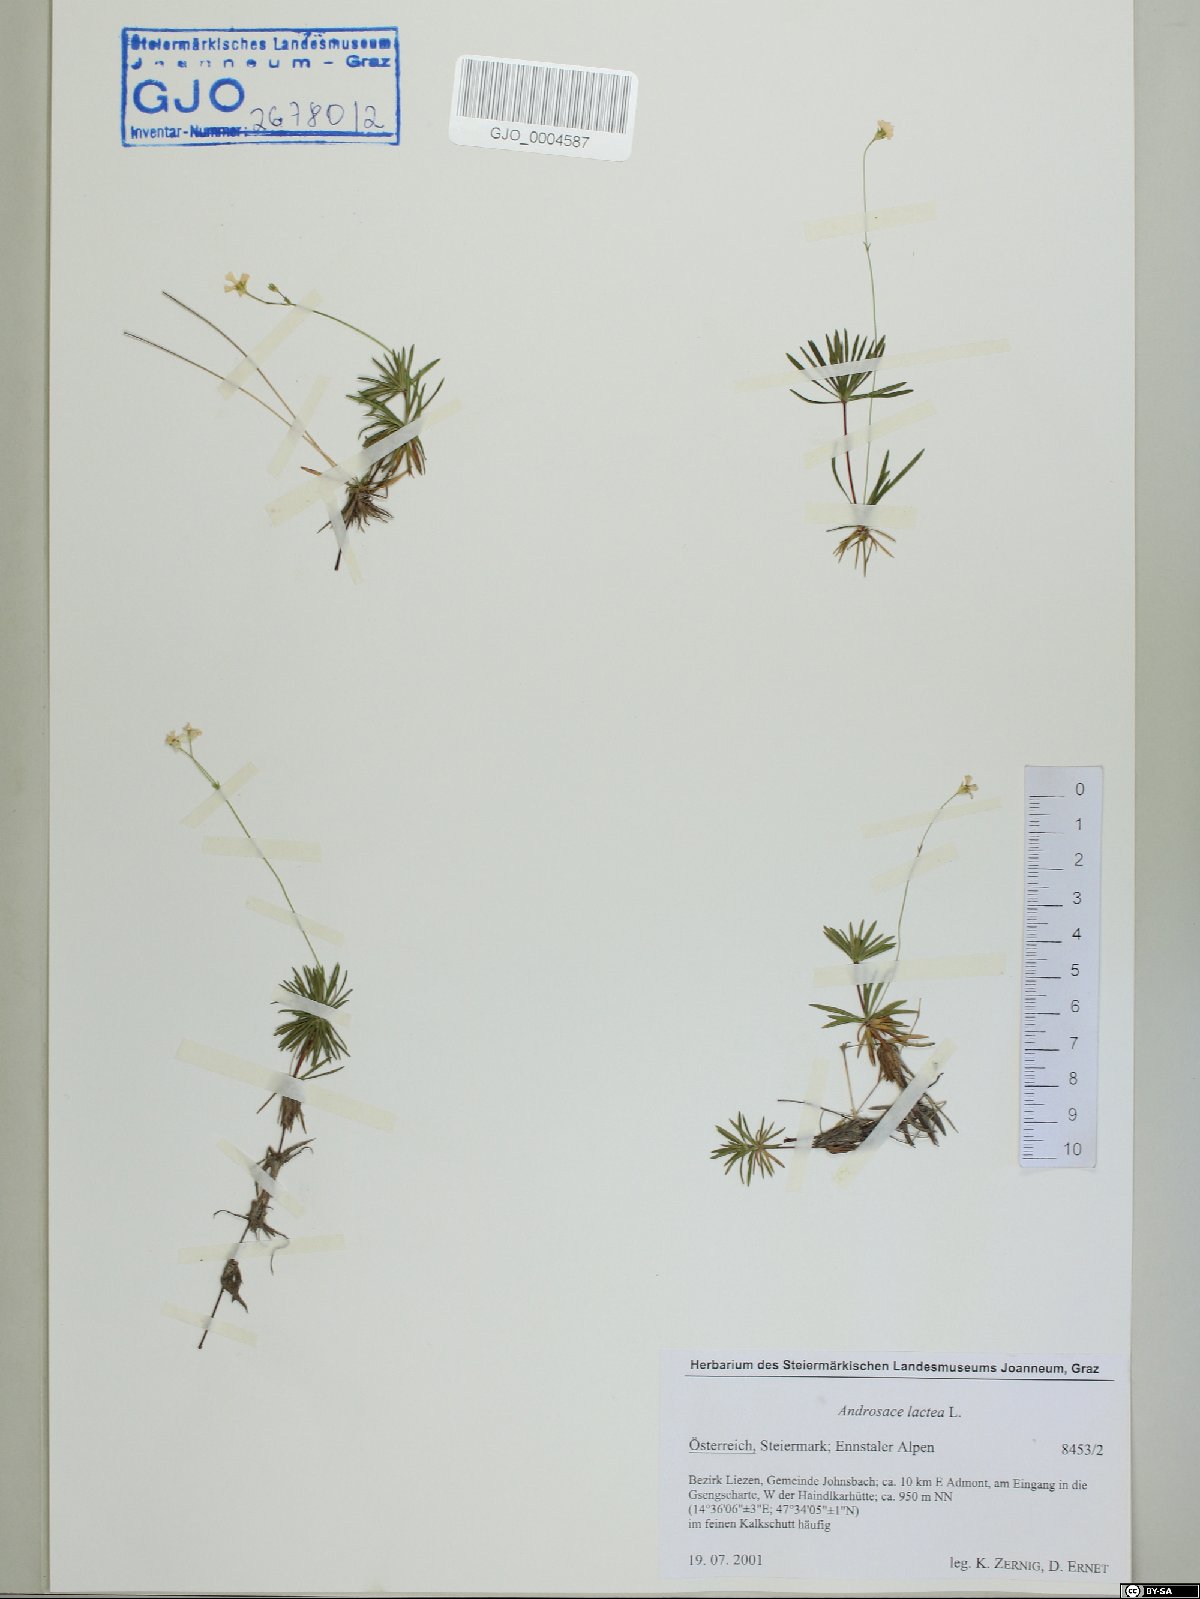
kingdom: Plantae
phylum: Tracheophyta
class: Magnoliopsida
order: Ericales
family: Primulaceae
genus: Androsace
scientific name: Androsace lactea
